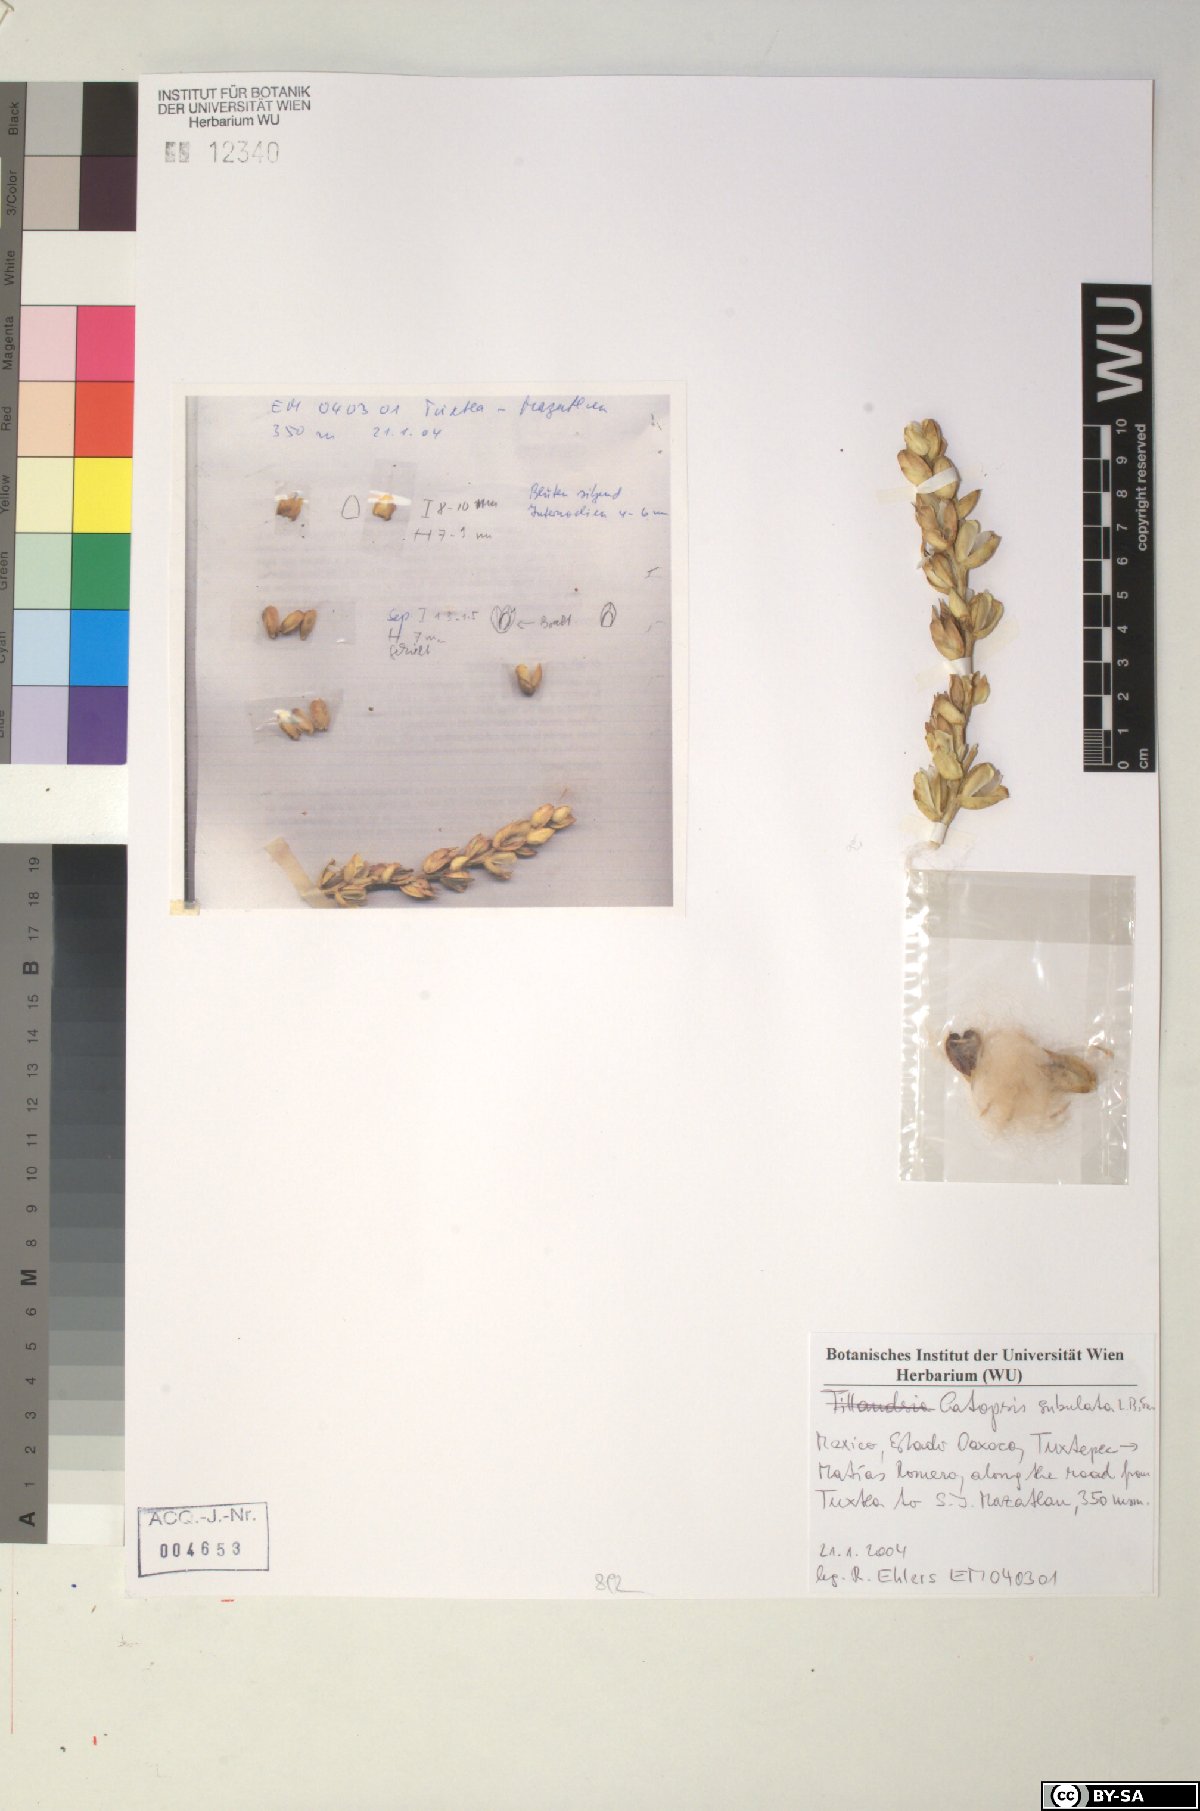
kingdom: Plantae
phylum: Tracheophyta
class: Liliopsida
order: Poales
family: Bromeliaceae
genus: Catopsis
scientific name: Catopsis subulata
